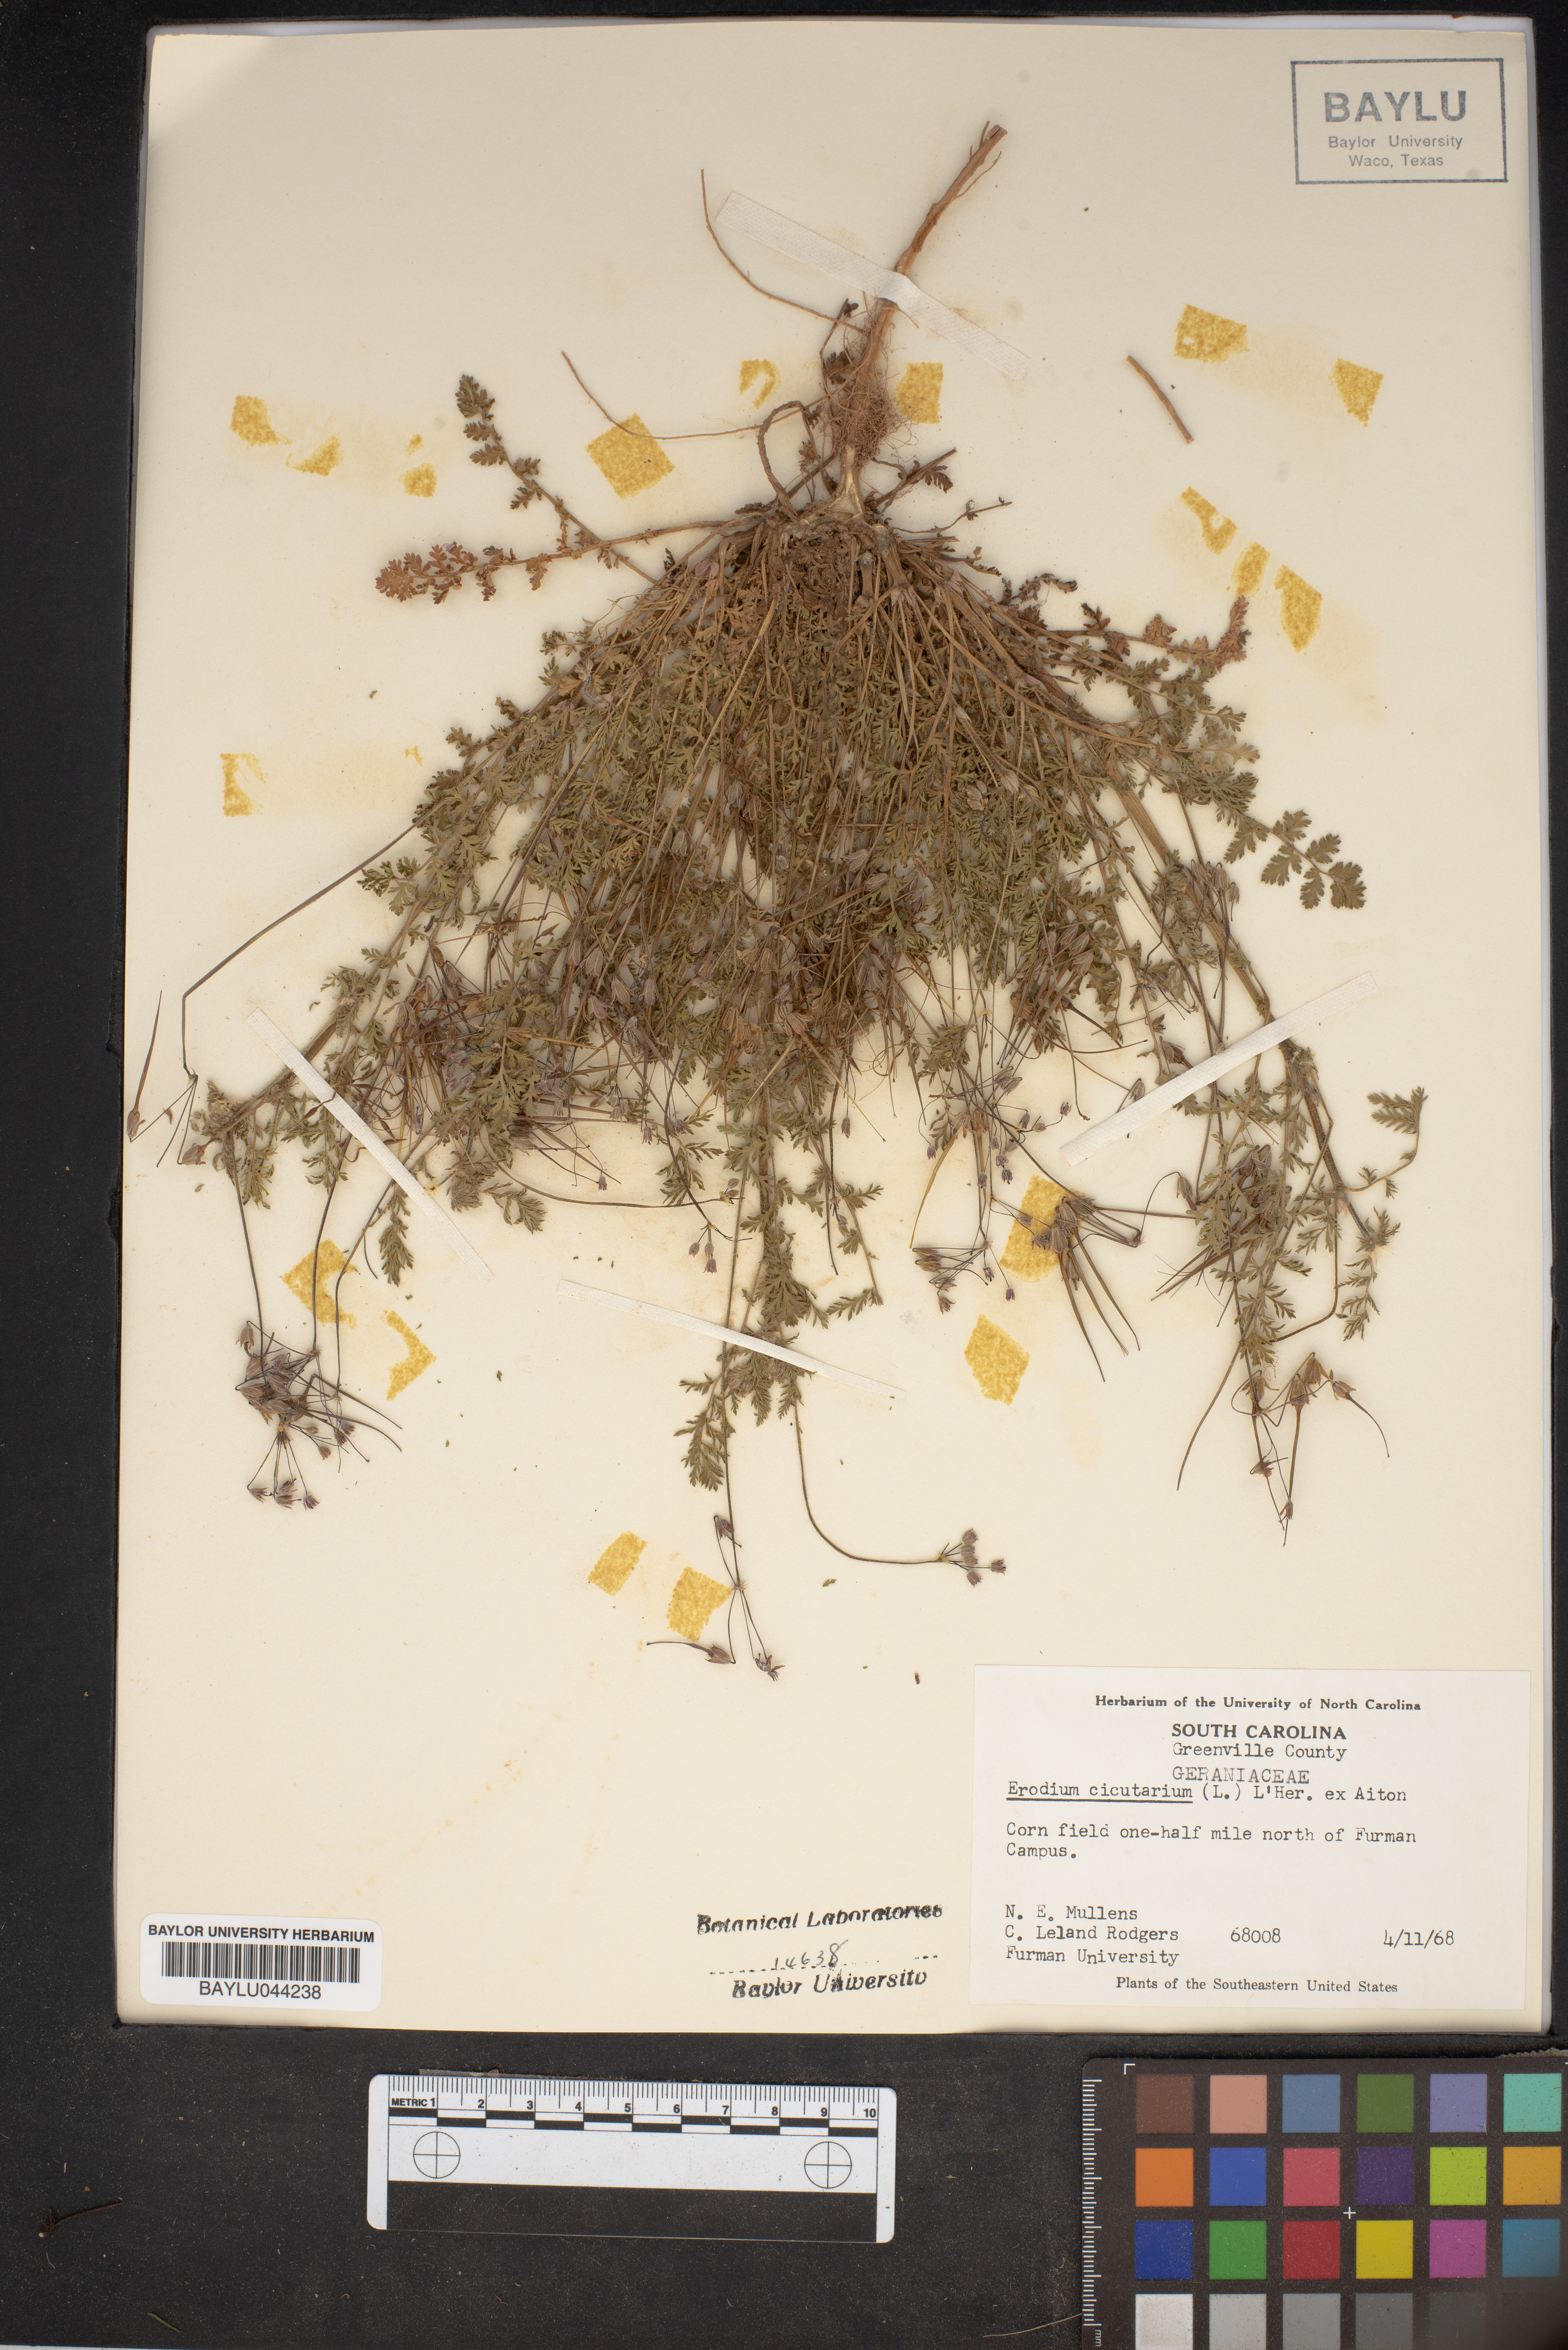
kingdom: Plantae
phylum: Tracheophyta
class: Magnoliopsida
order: Geraniales
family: Geraniaceae
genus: Erodium
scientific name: Erodium cicutarium
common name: Common stork's-bill
